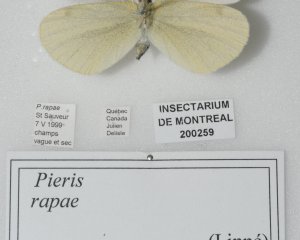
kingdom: Animalia
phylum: Arthropoda
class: Insecta
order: Lepidoptera
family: Pieridae
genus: Pieris
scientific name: Pieris rapae
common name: Cabbage White
